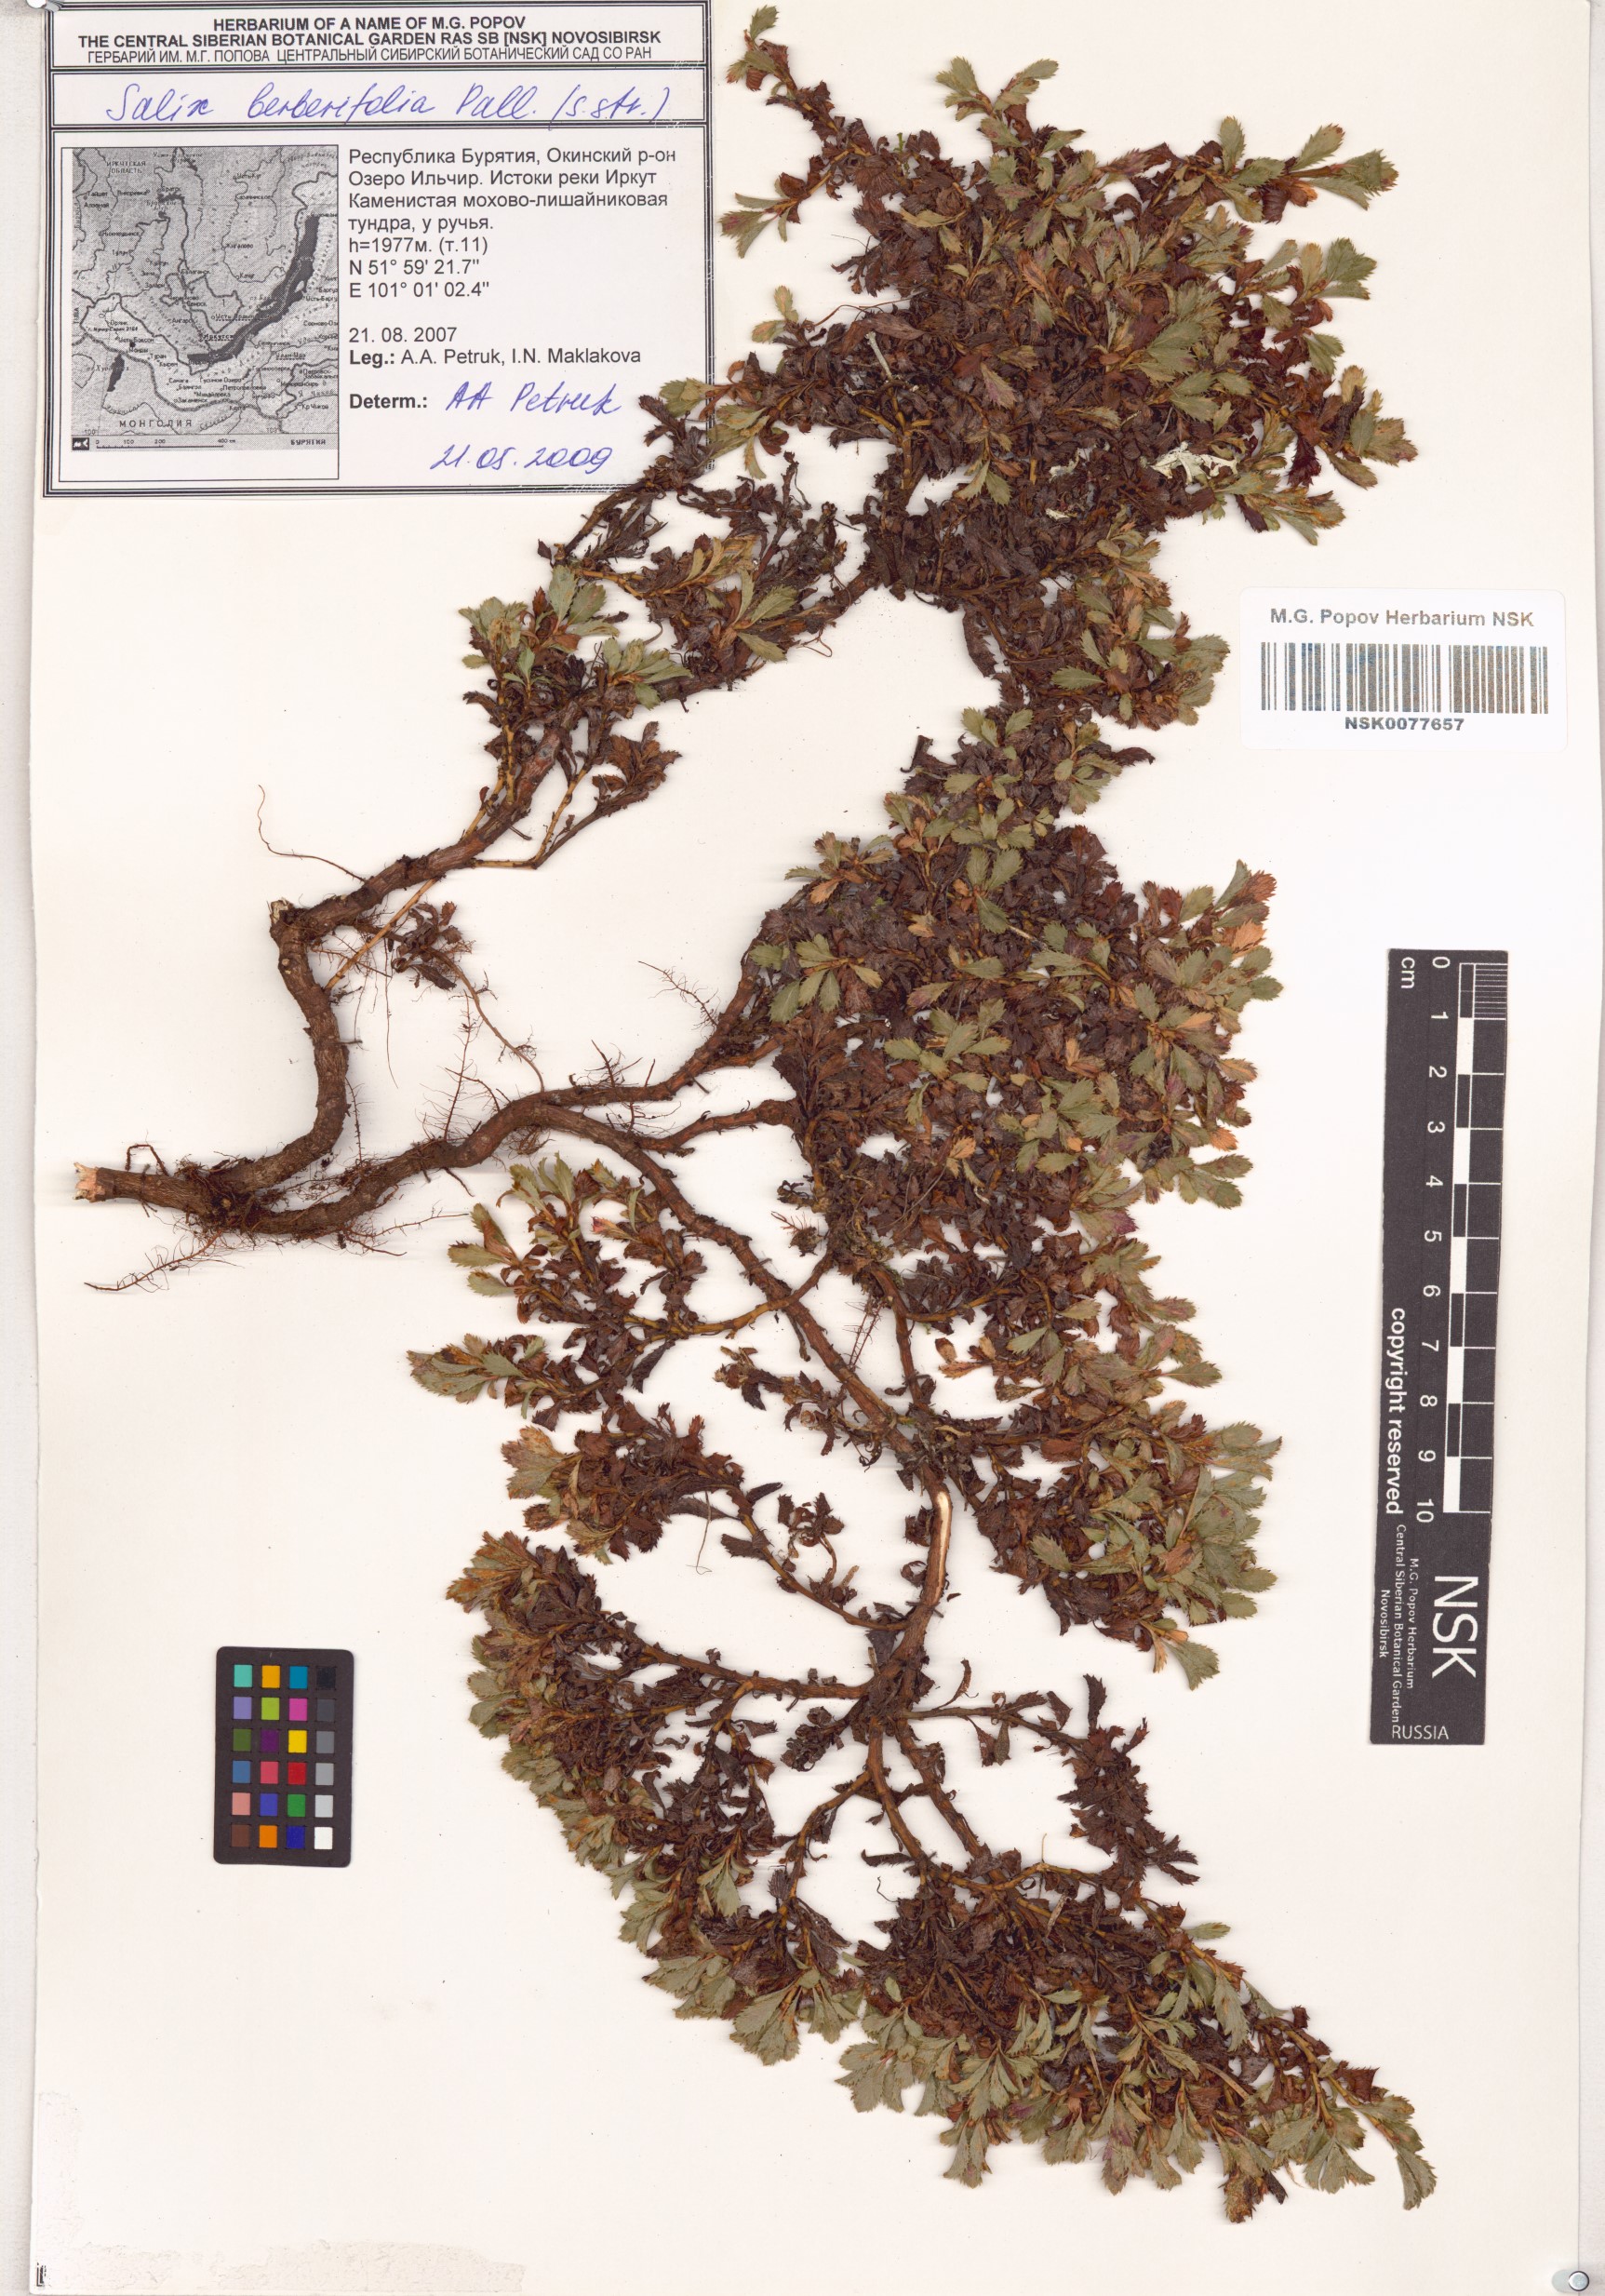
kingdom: Plantae
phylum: Tracheophyta
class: Magnoliopsida
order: Malpighiales
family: Salicaceae
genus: Salix
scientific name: Salix berberifolia
